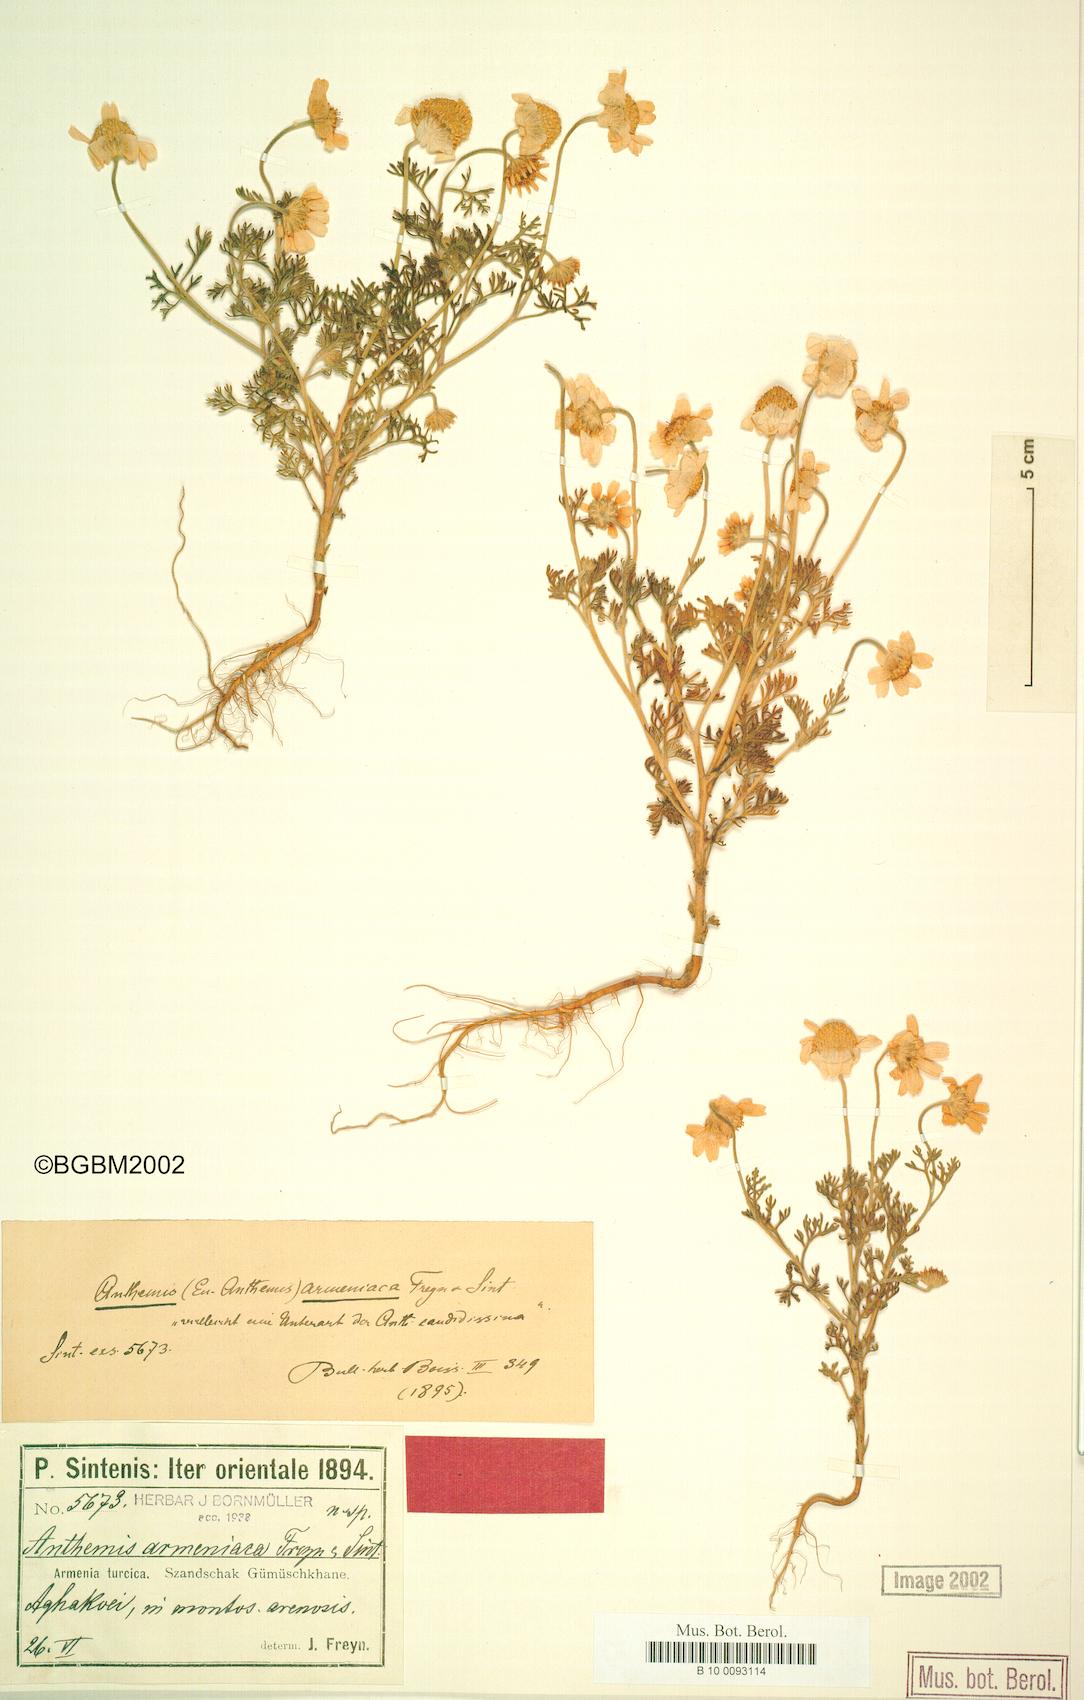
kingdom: Plantae
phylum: Tracheophyta
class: Magnoliopsida
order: Asterales
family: Asteraceae
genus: Anthemis
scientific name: Anthemis candidissima
